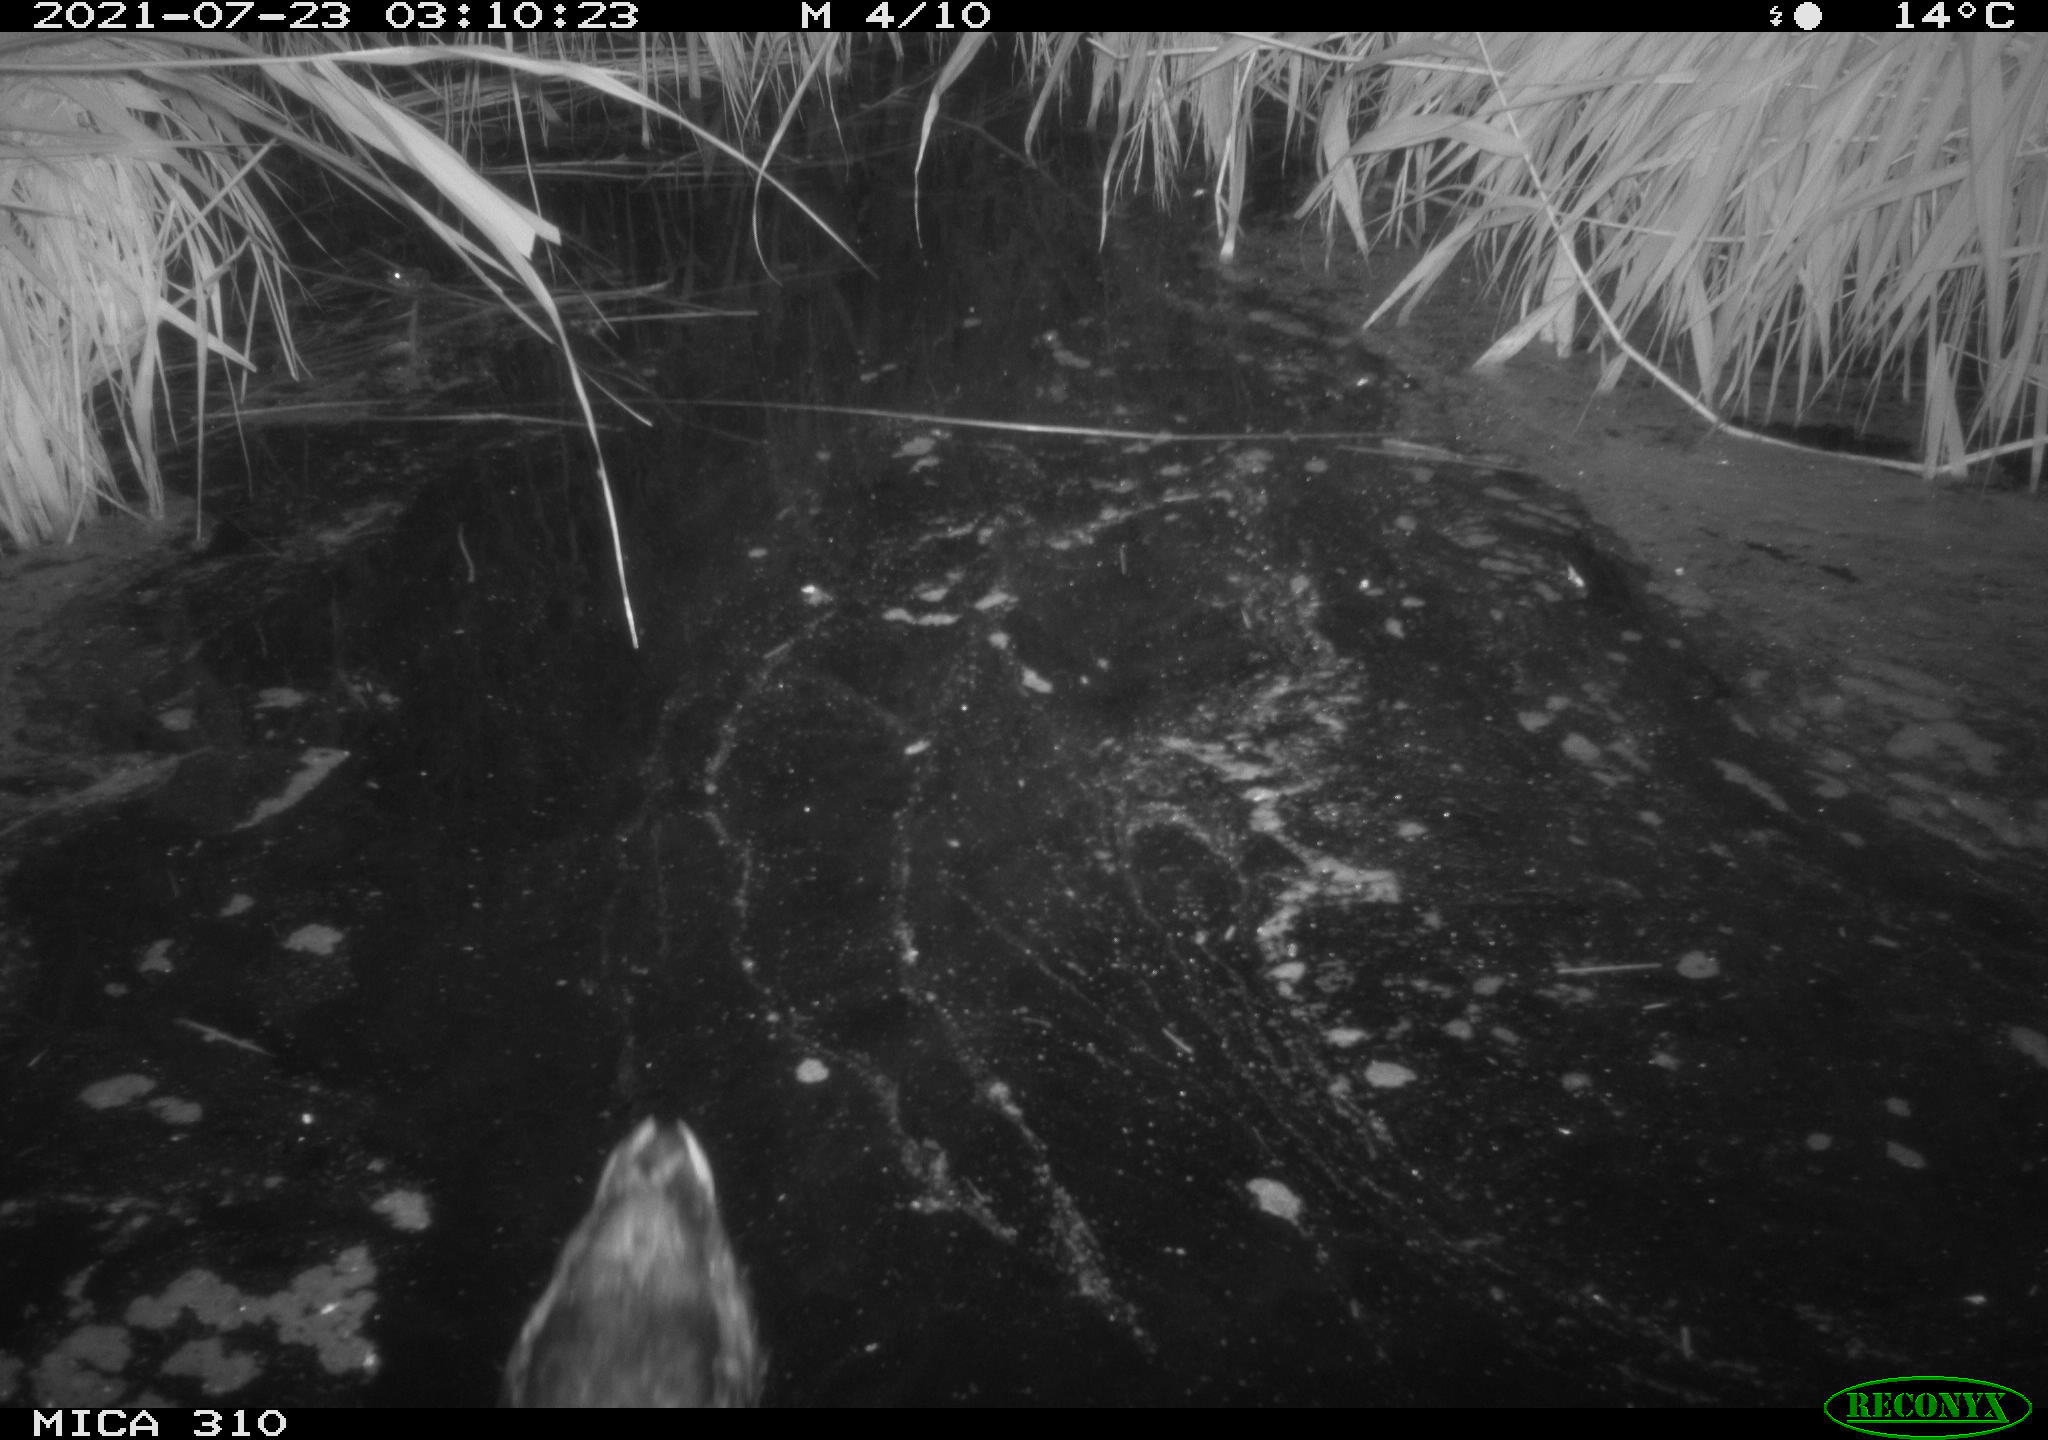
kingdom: Animalia
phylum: Chordata
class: Aves
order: Anseriformes
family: Anatidae
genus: Anas
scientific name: Anas platyrhynchos
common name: Mallard
